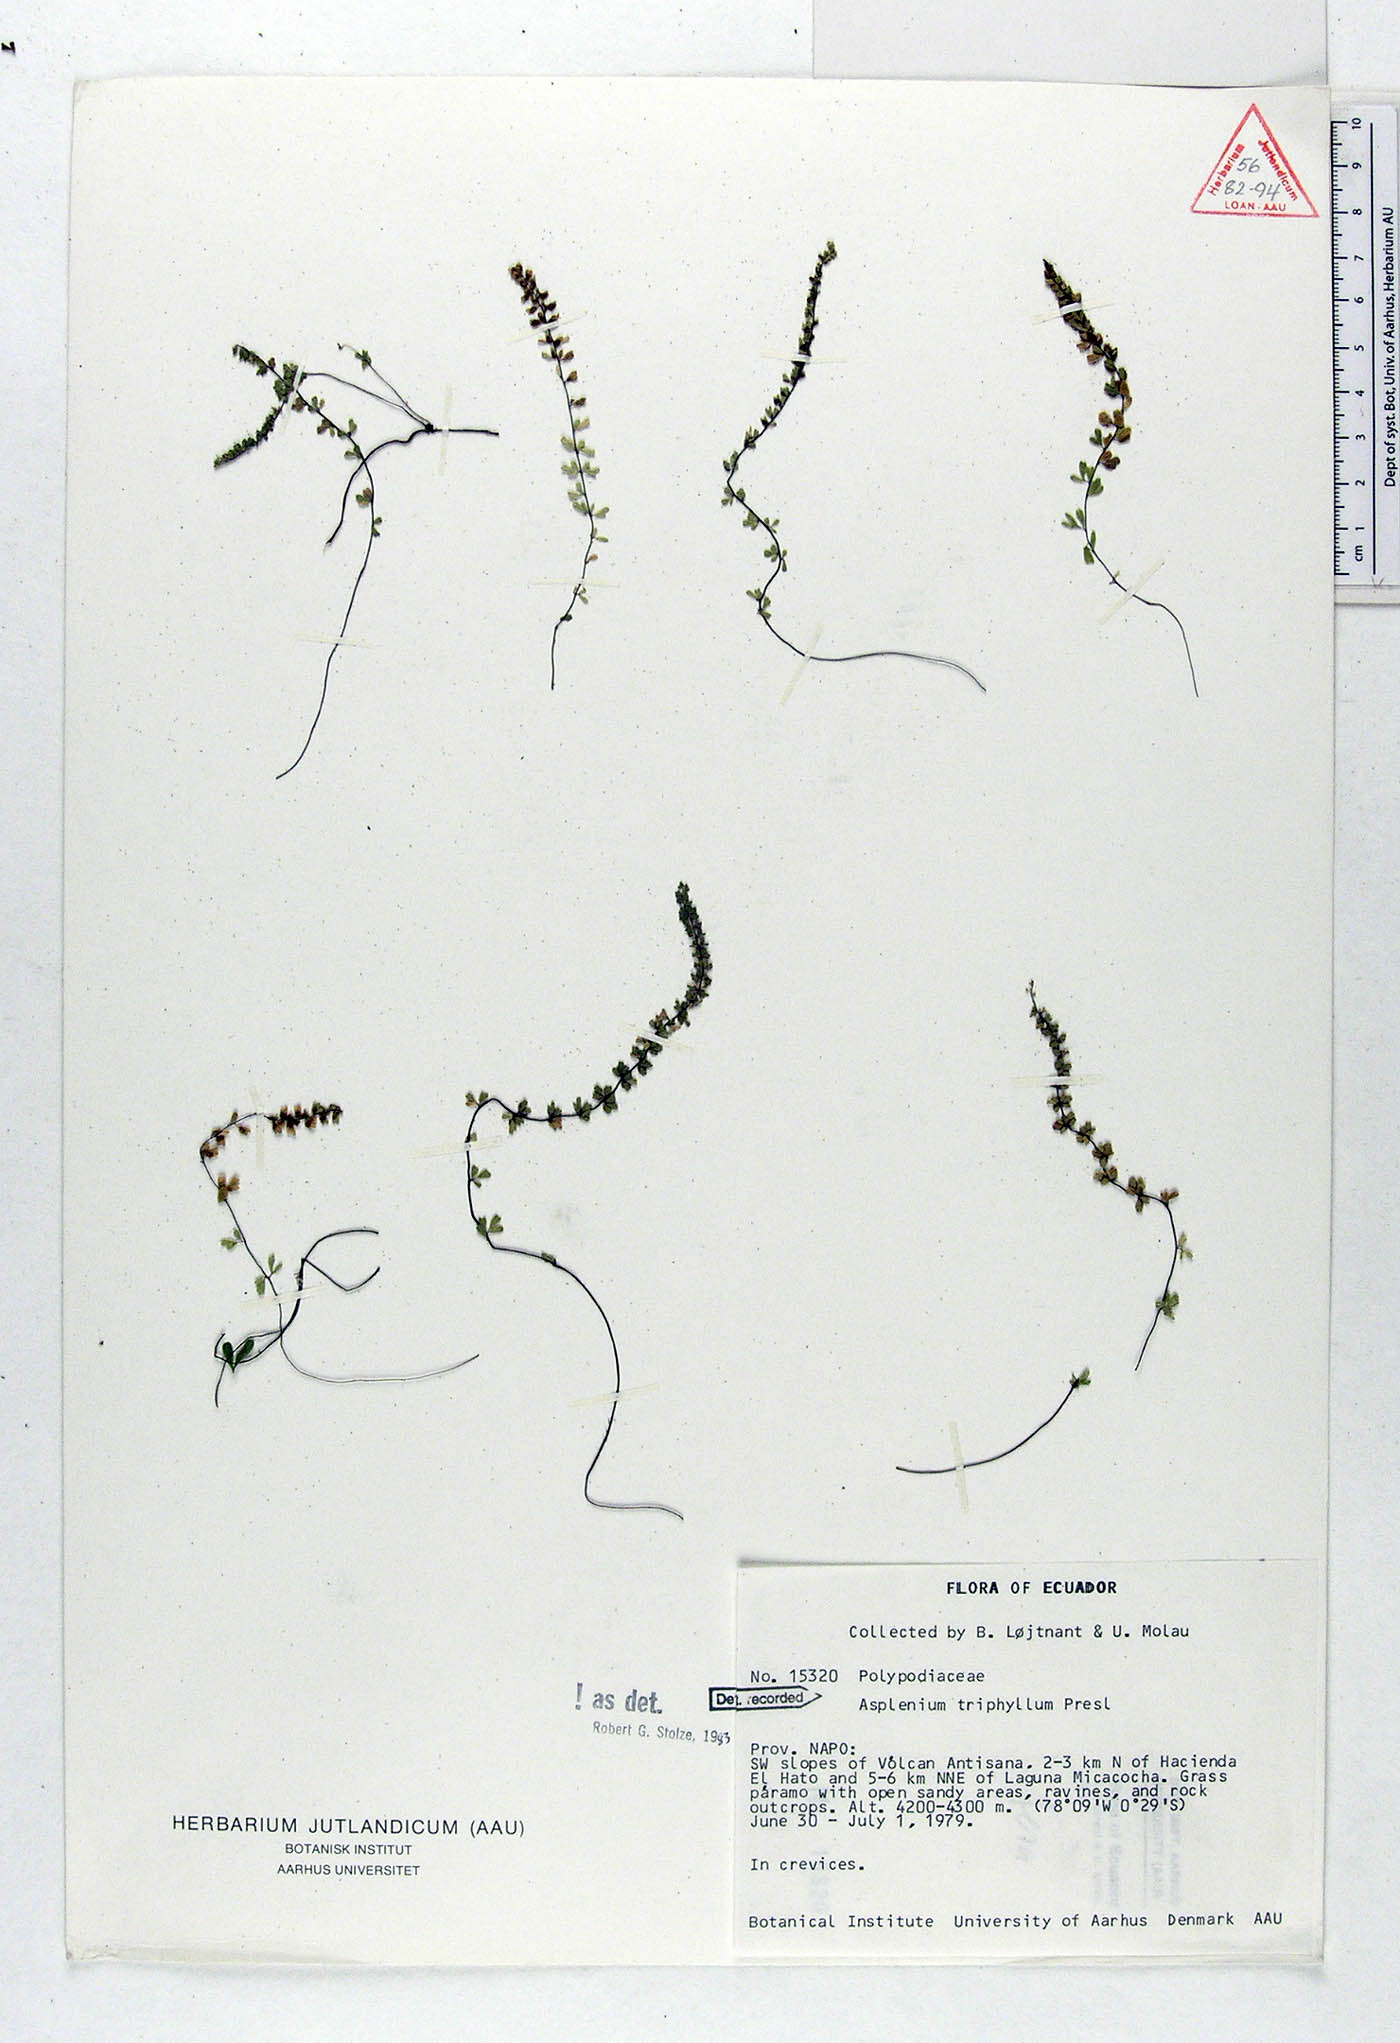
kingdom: Plantae
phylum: Tracheophyta
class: Polypodiopsida
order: Polypodiales
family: Aspleniaceae
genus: Asplenium
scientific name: Asplenium triphyllum
